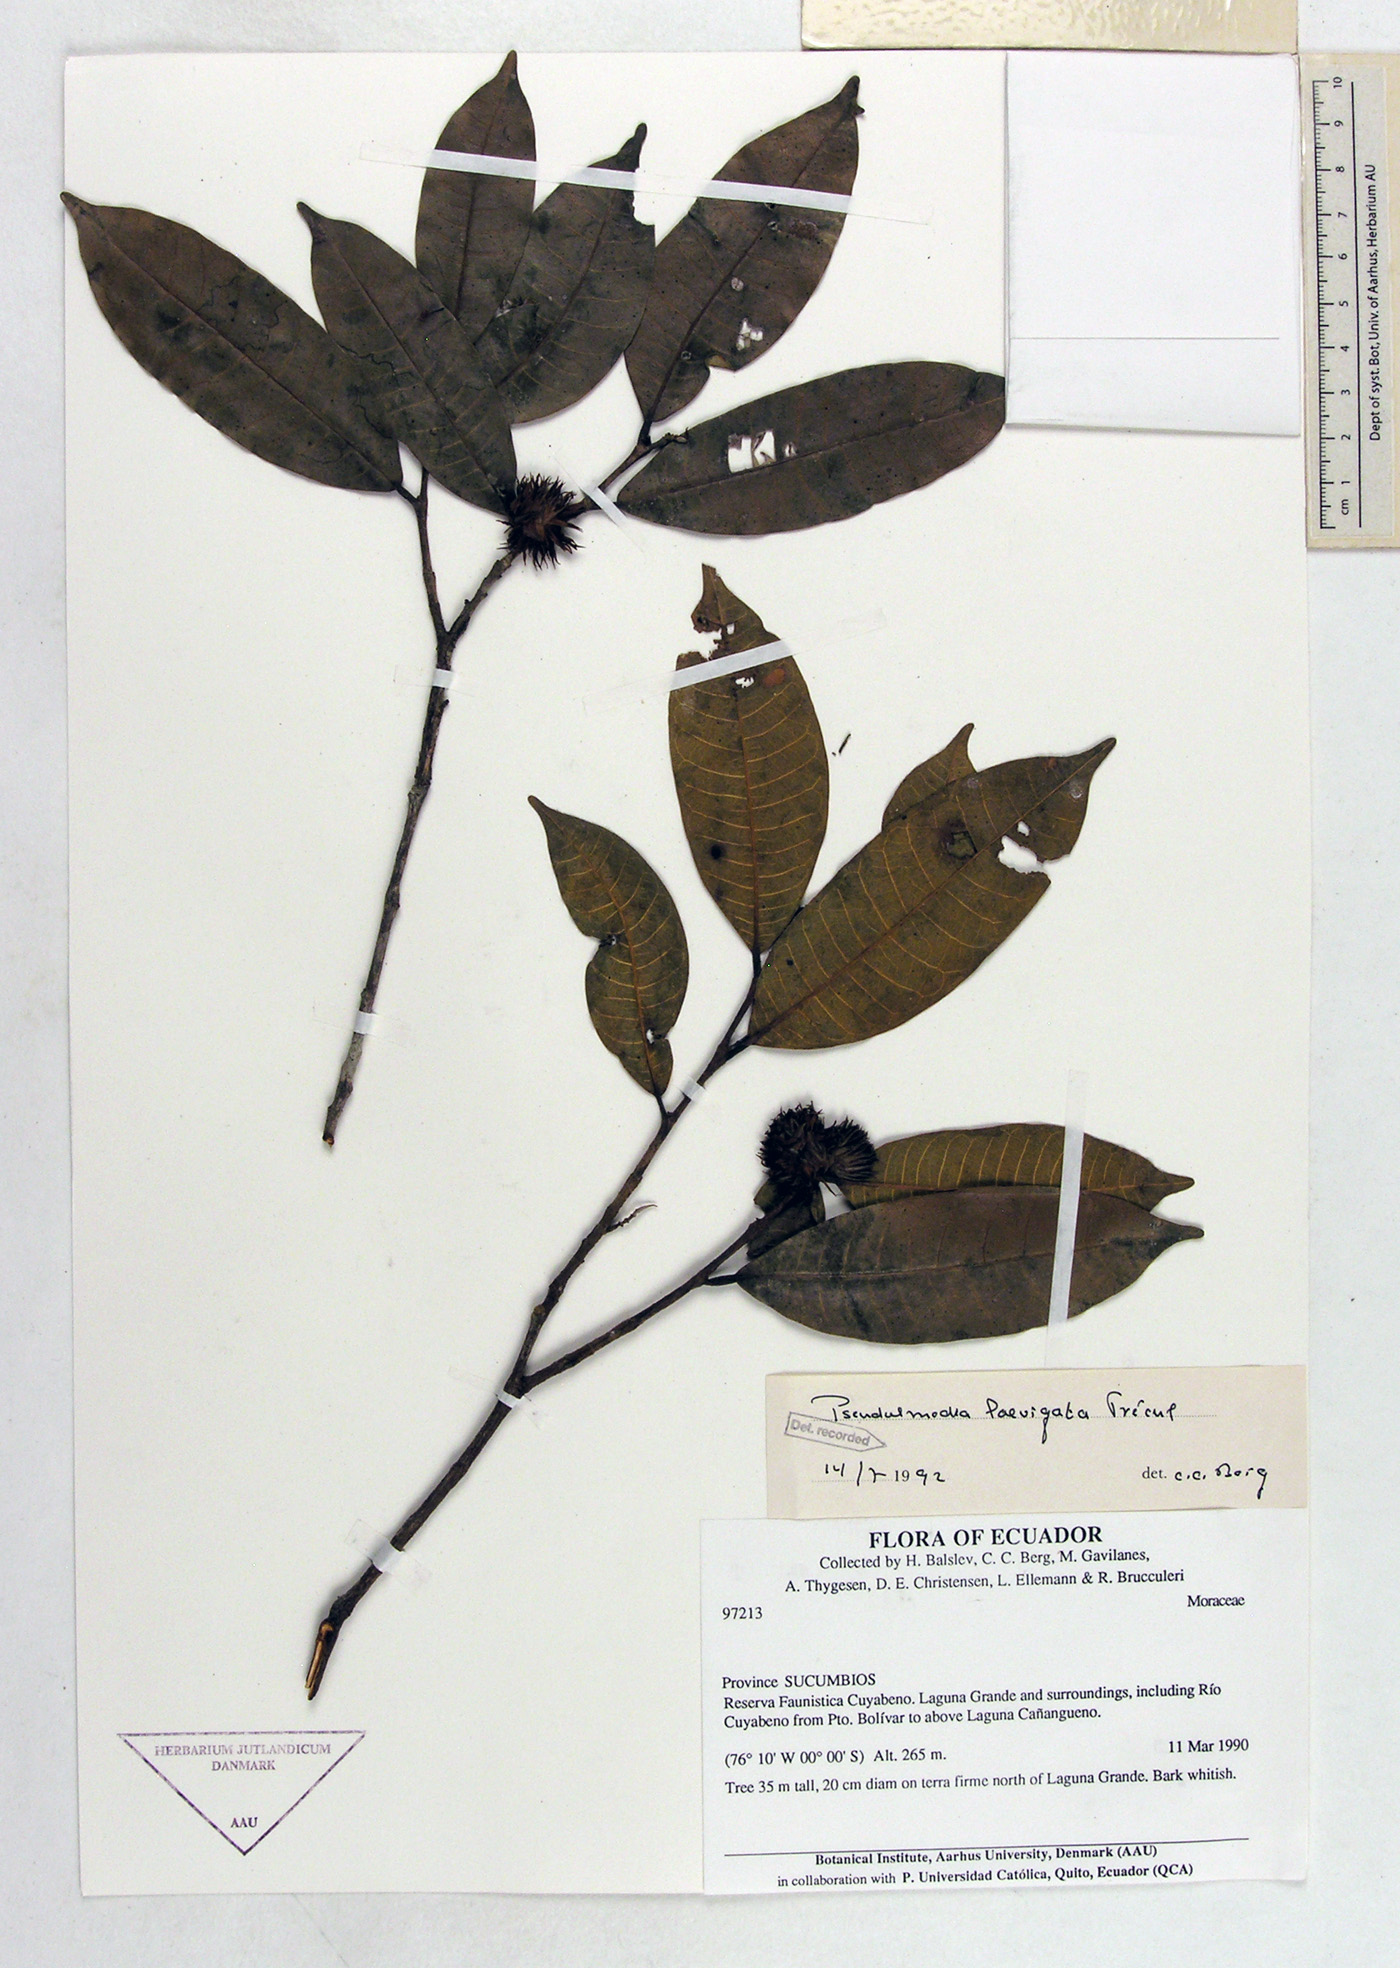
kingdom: Plantae
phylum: Tracheophyta
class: Magnoliopsida
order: Rosales
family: Moraceae
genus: Pseudolmedia
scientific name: Pseudolmedia laevigata
